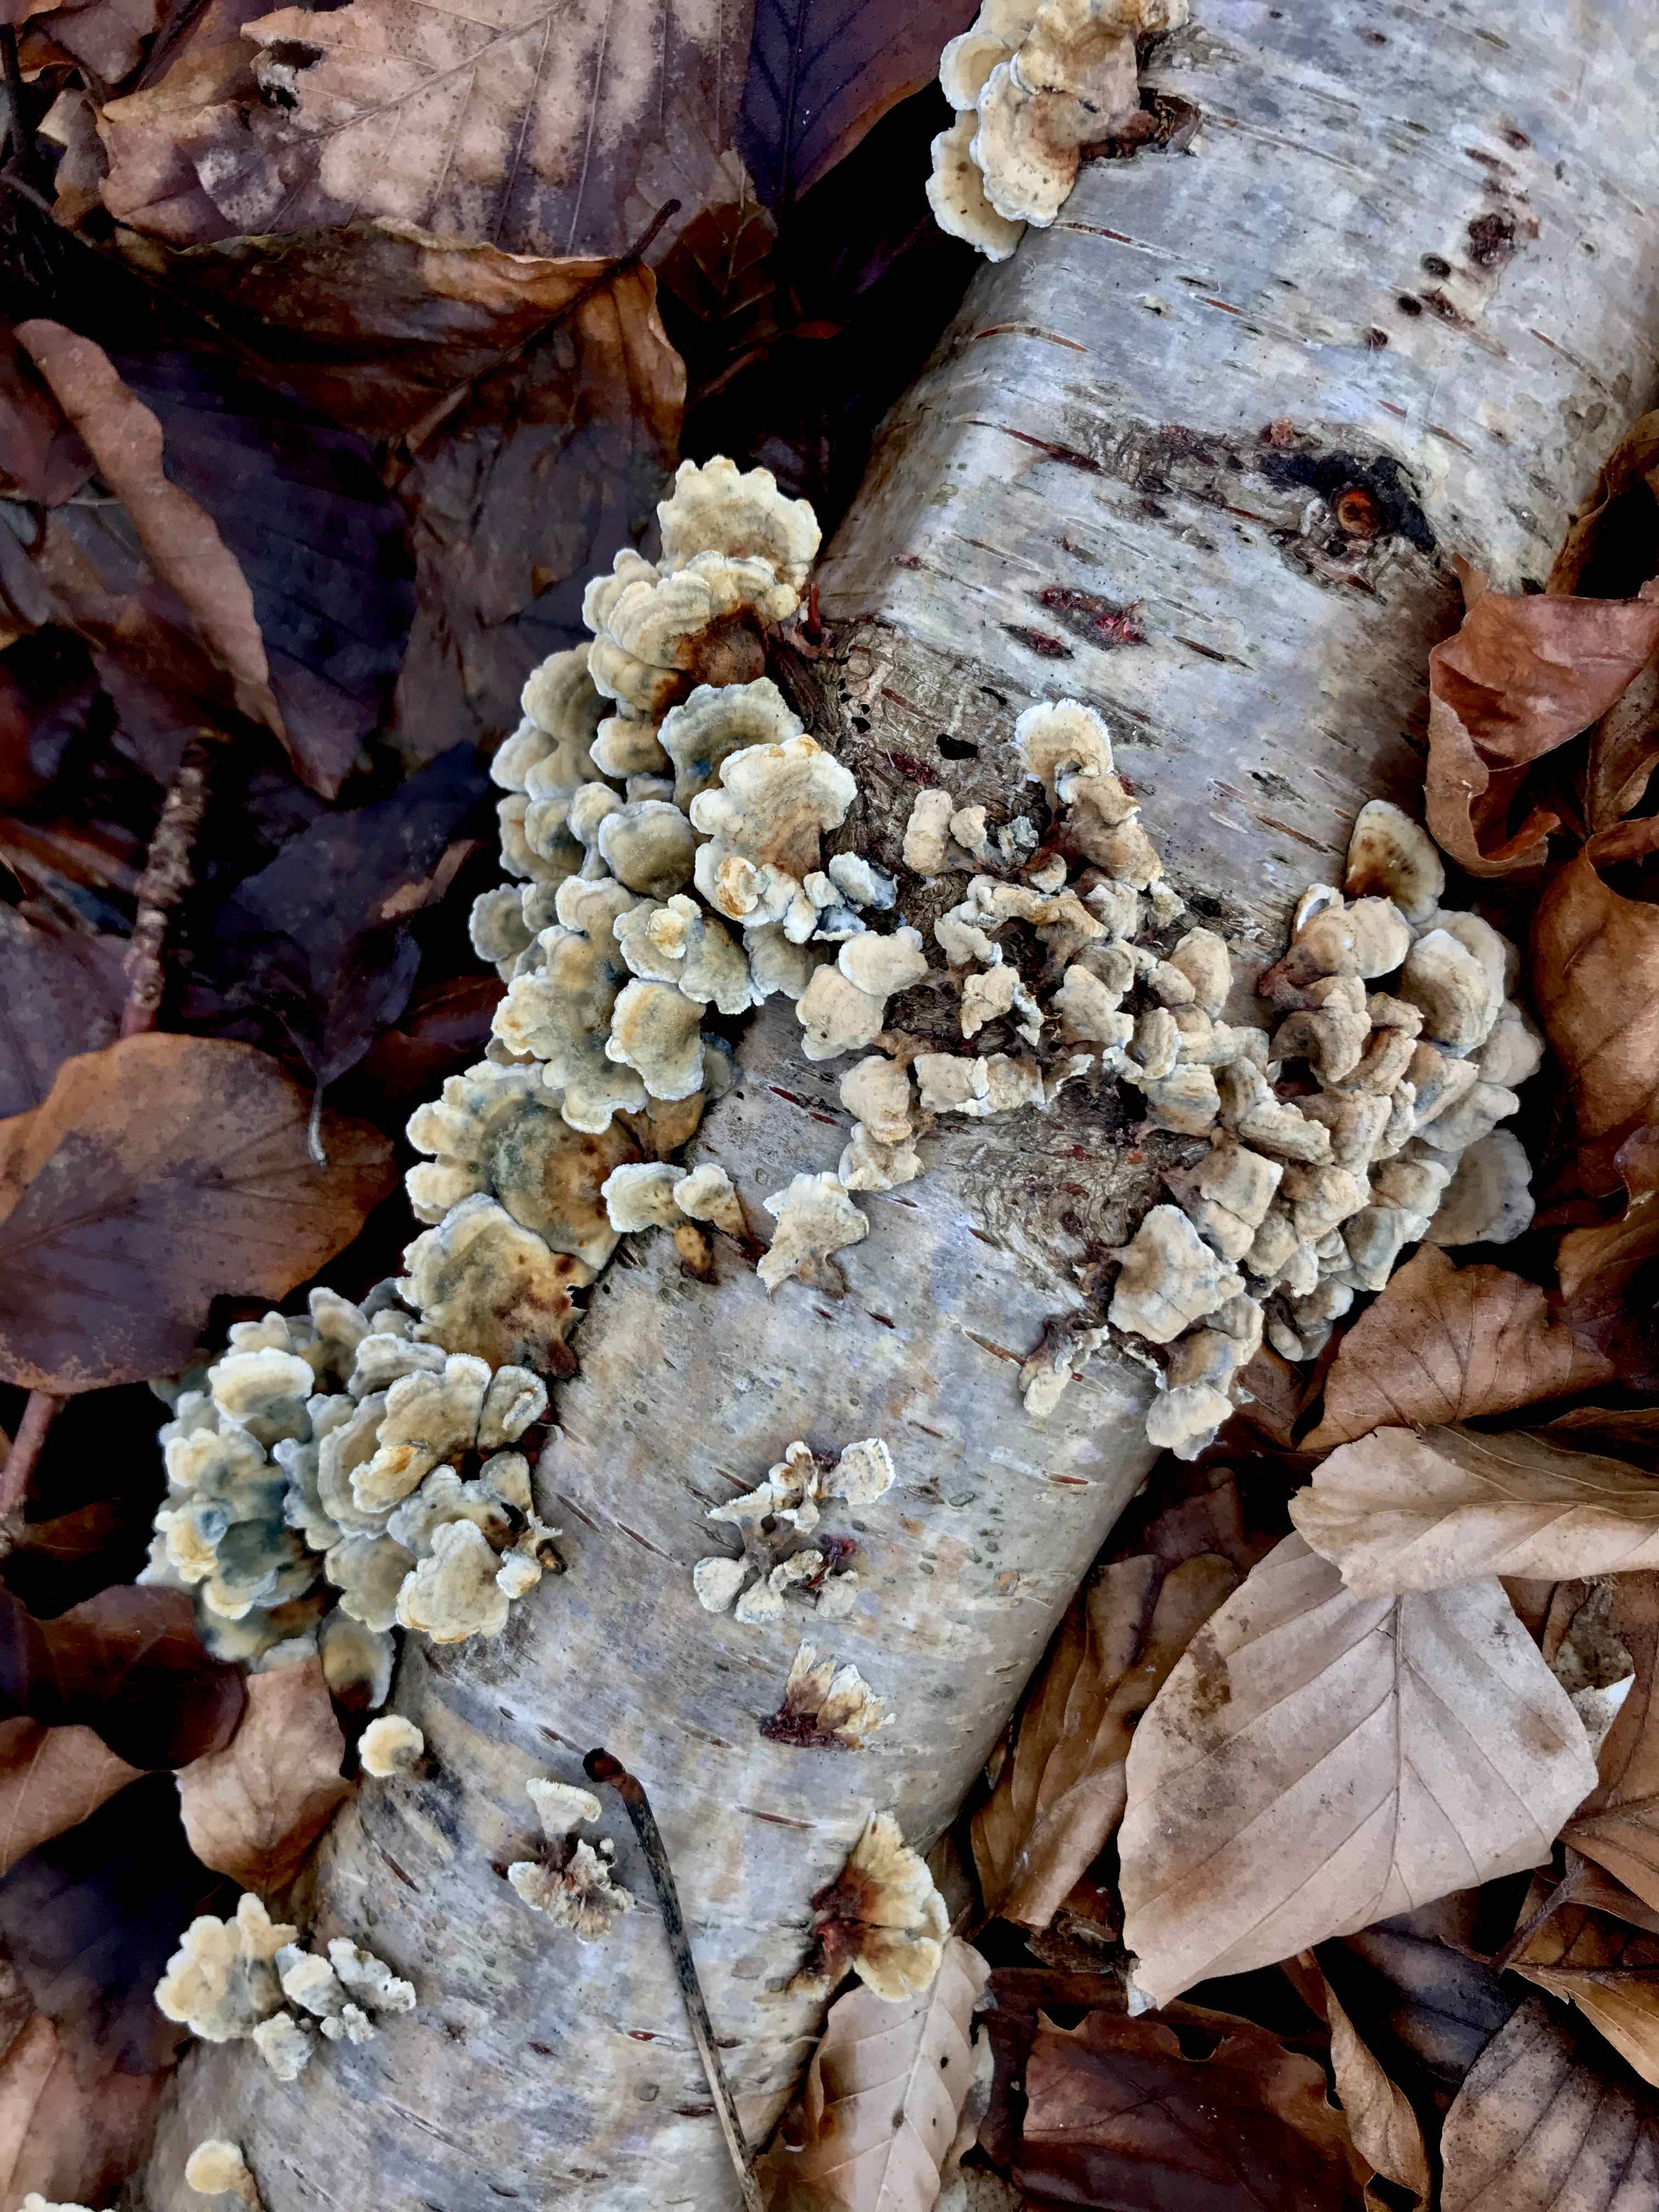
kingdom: Fungi
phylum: Basidiomycota
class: Agaricomycetes
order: Amylocorticiales
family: Amylocorticiaceae
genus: Plicaturopsis
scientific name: Plicaturopsis crispa
